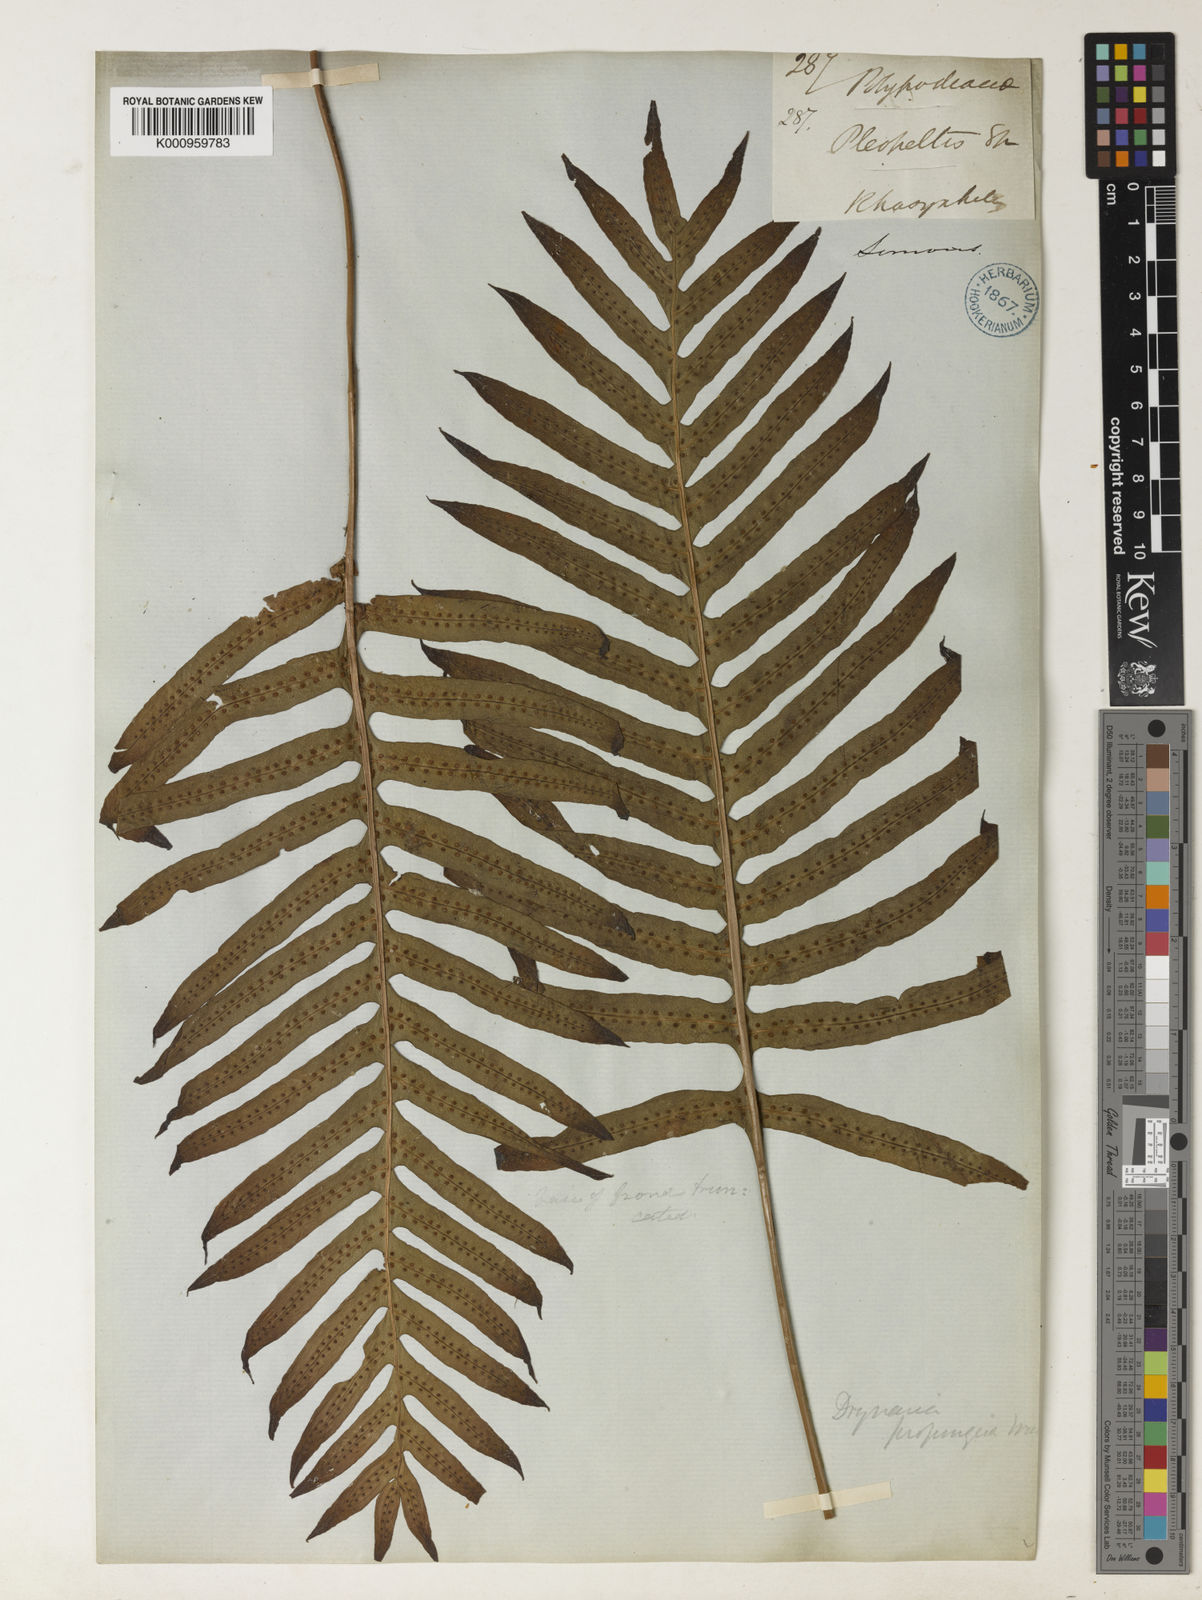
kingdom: Plantae
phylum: Tracheophyta
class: Polypodiopsida
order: Polypodiales
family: Polypodiaceae
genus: Drynaria
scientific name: Drynaria
